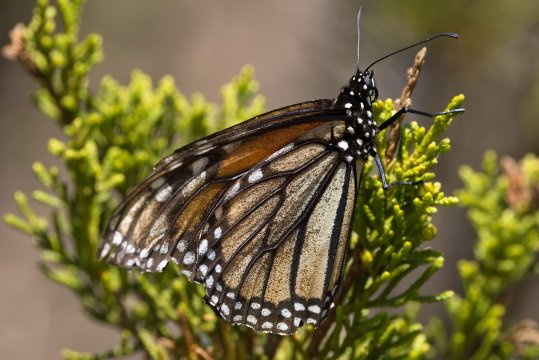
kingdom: Animalia
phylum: Arthropoda
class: Insecta
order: Lepidoptera
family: Nymphalidae
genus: Danaus
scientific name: Danaus plexippus
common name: Monarch
